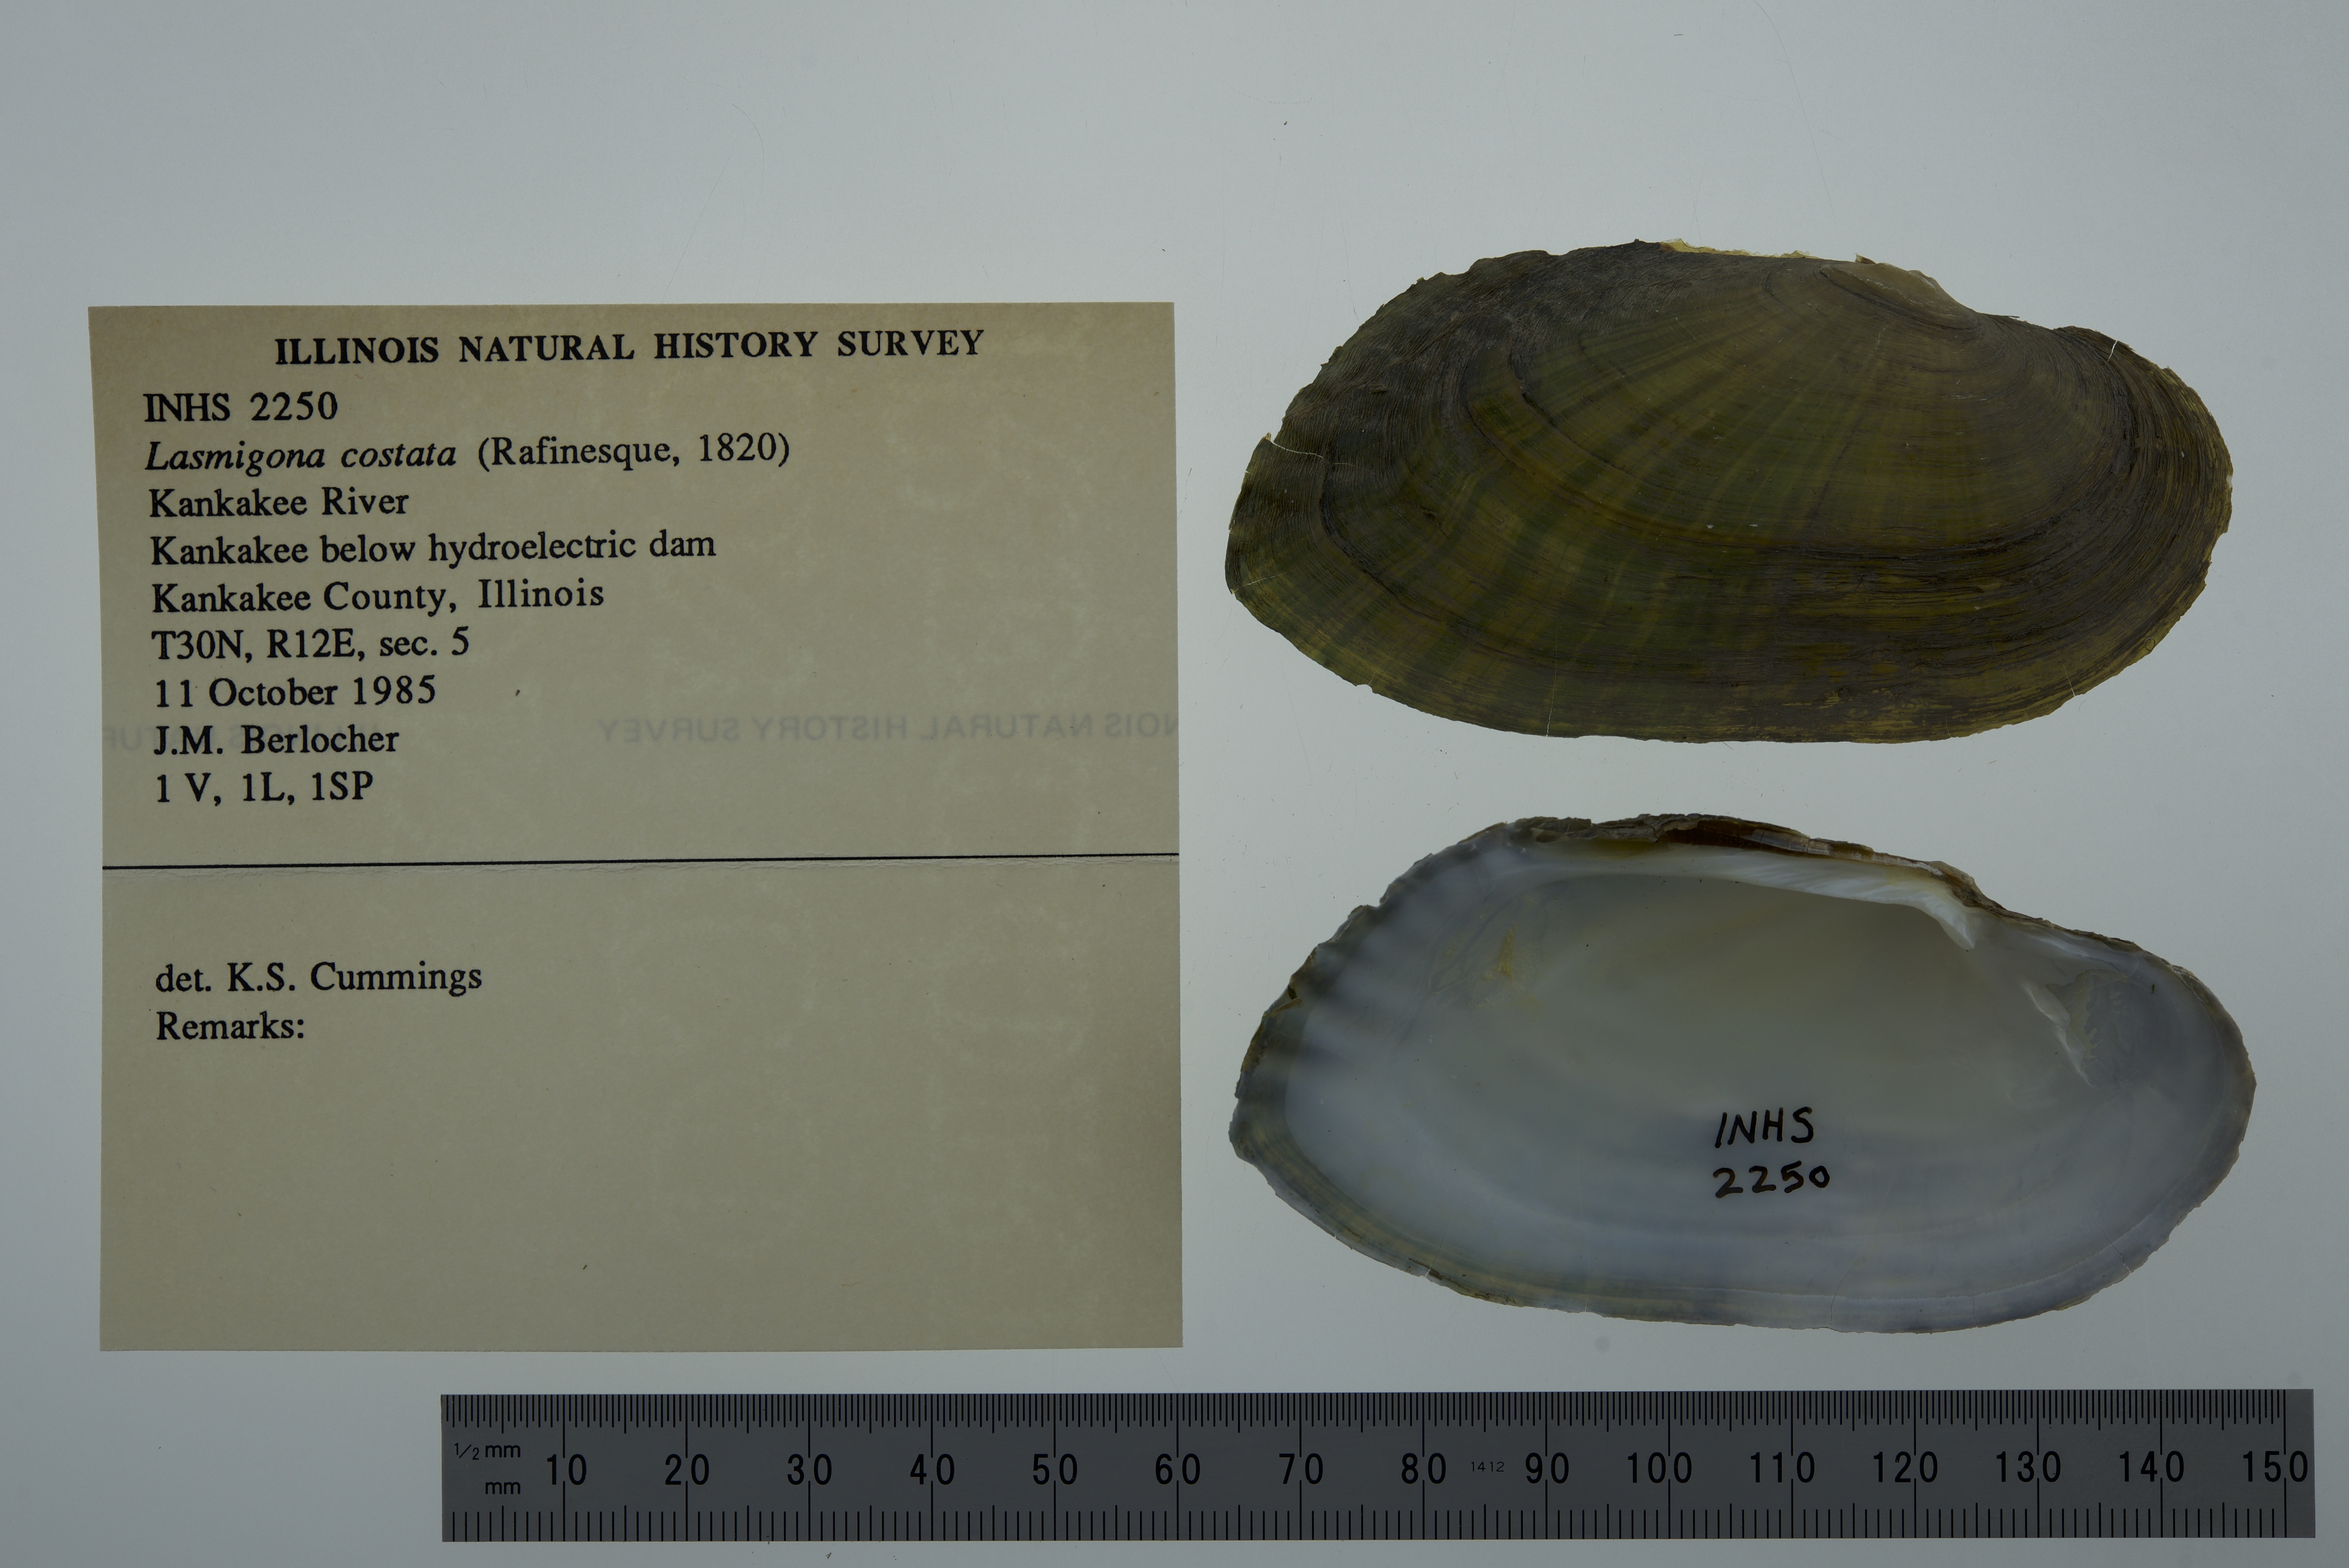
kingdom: Animalia
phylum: Mollusca
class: Bivalvia
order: Unionida
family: Unionidae
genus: Lasmigona
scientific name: Lasmigona costata
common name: Flutedshell
